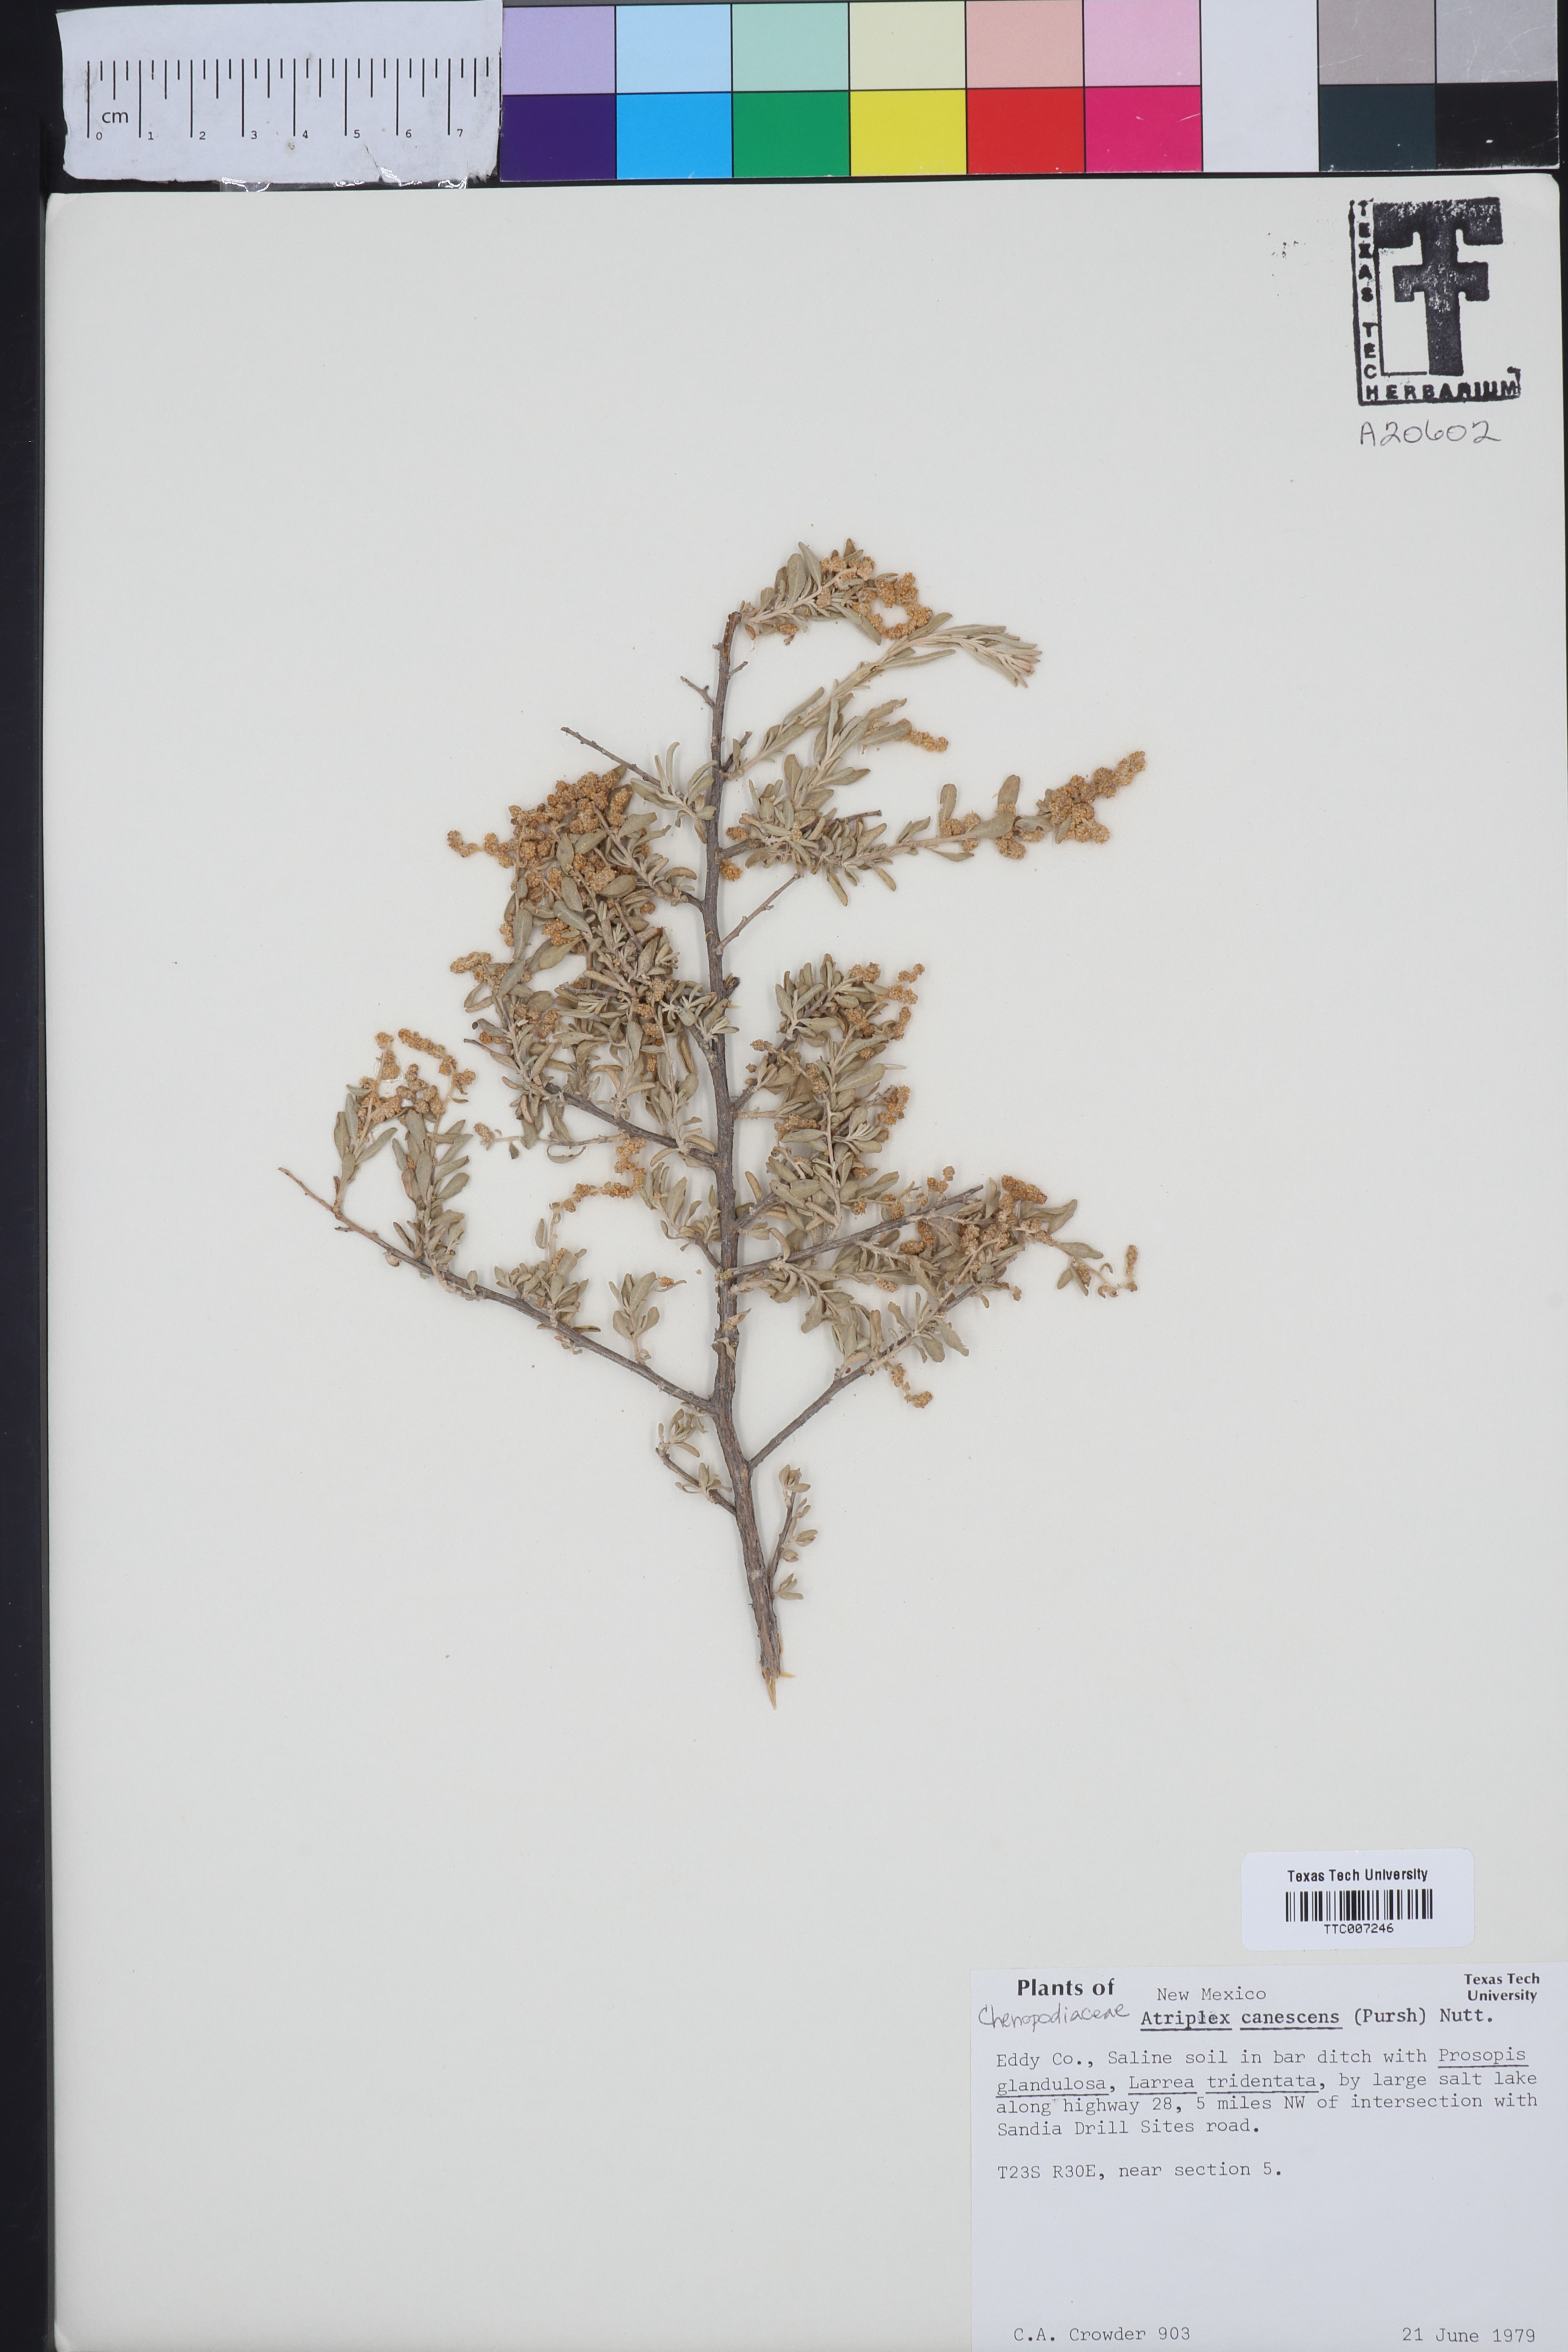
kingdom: Plantae
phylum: Tracheophyta
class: Magnoliopsida
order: Caryophyllales
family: Amaranthaceae
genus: Atriplex
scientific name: Atriplex canescens
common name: Four-wing saltbush
